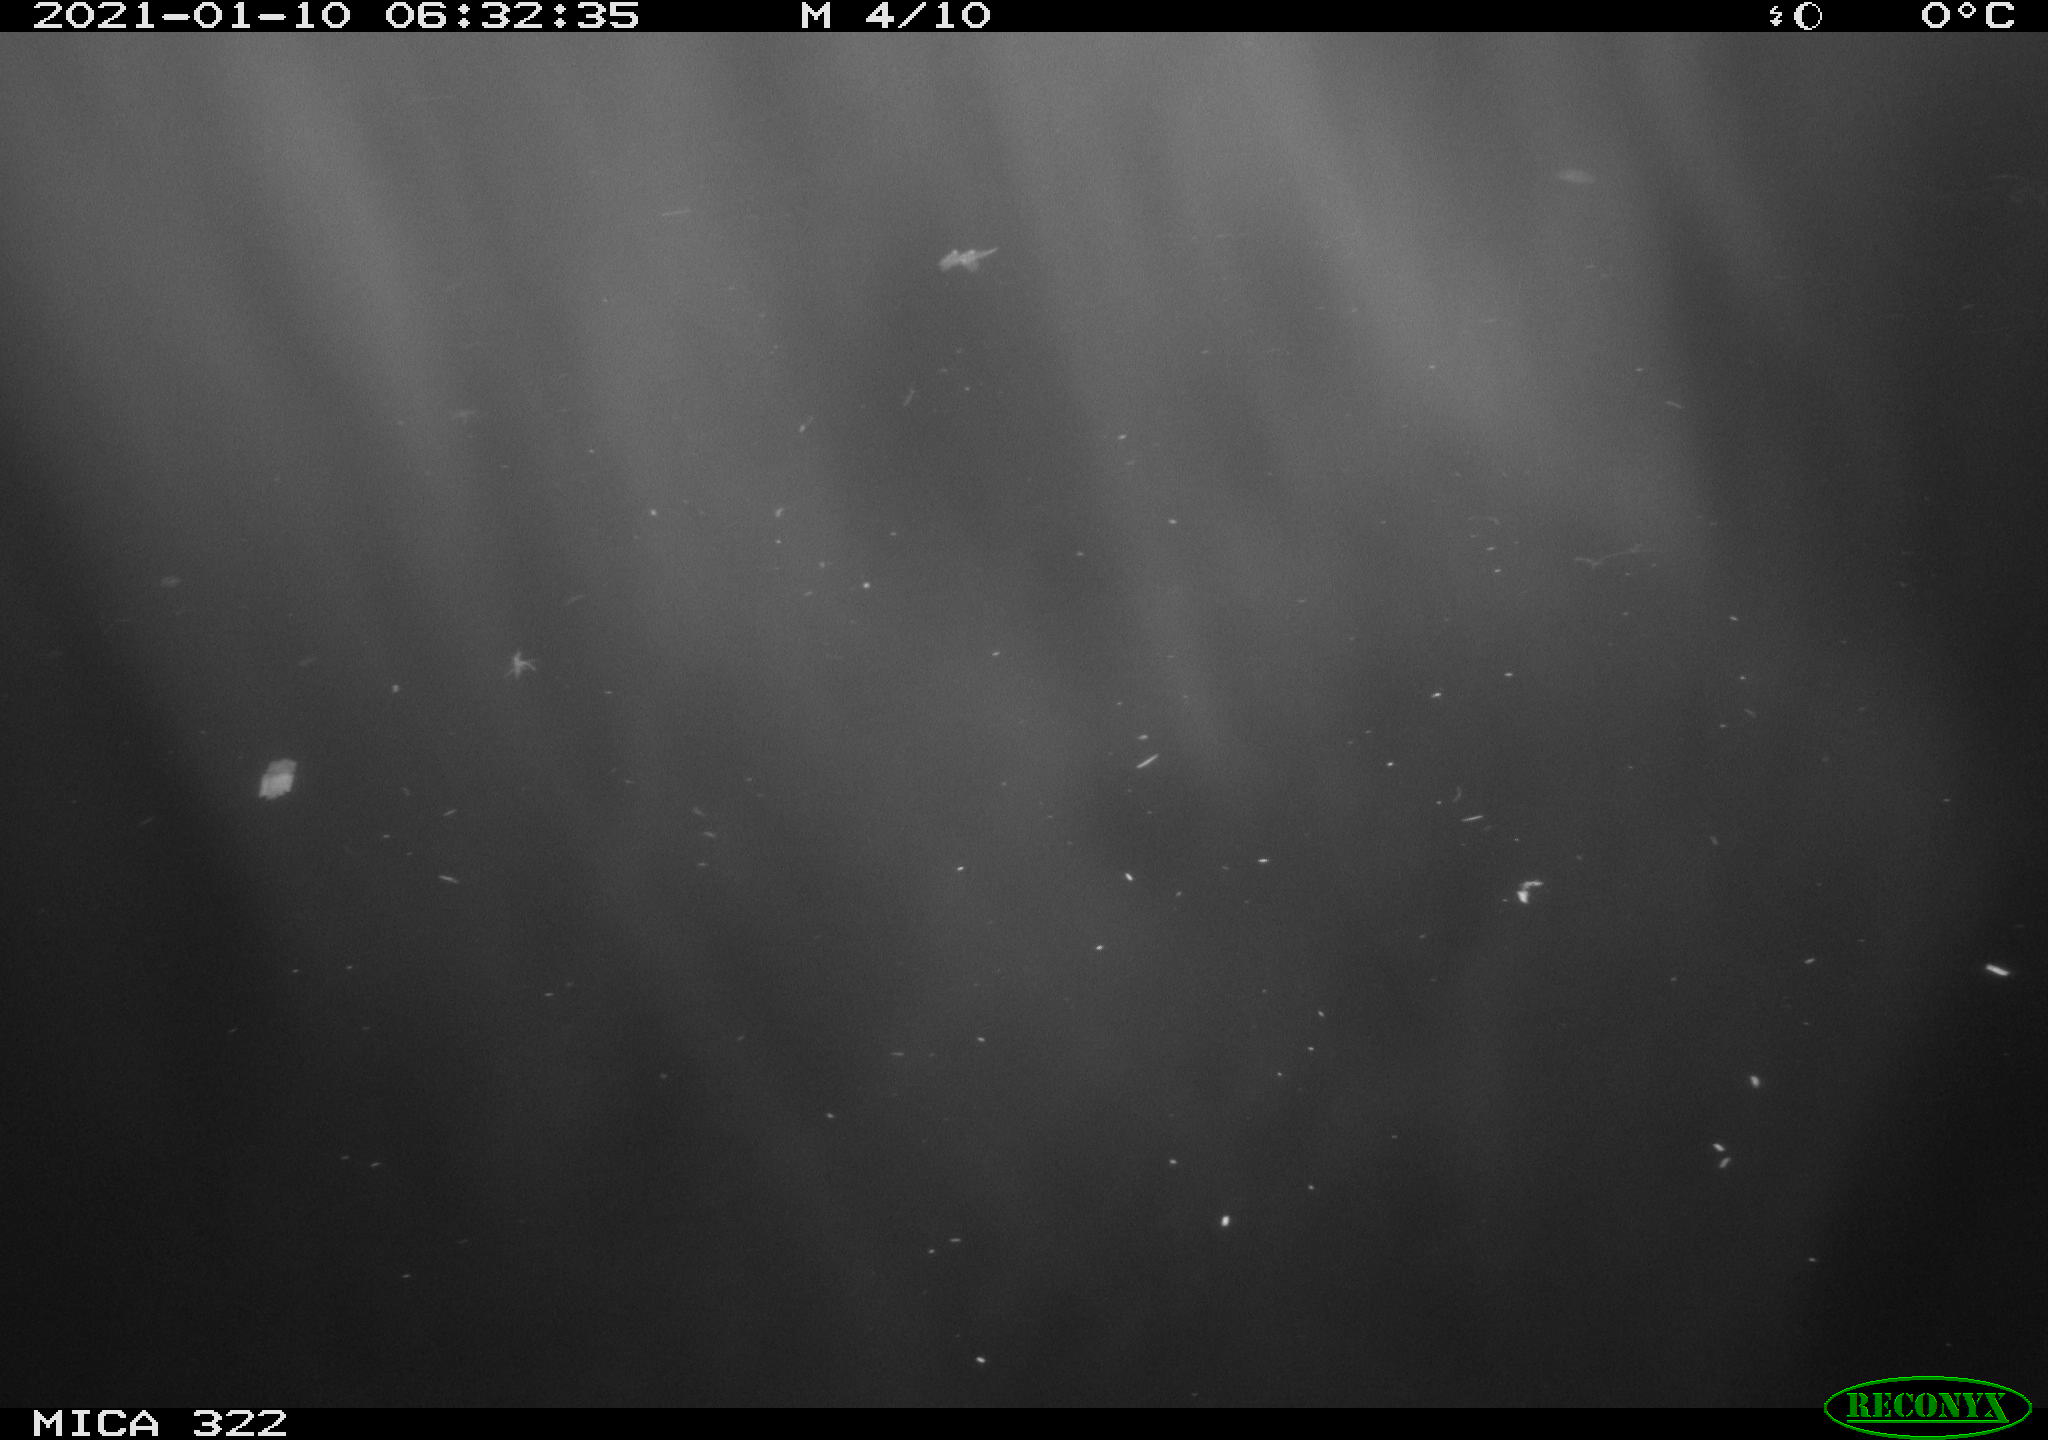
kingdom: Animalia
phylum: Chordata
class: Aves
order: Anseriformes
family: Anatidae
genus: Anas
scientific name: Anas platyrhynchos
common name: Mallard
